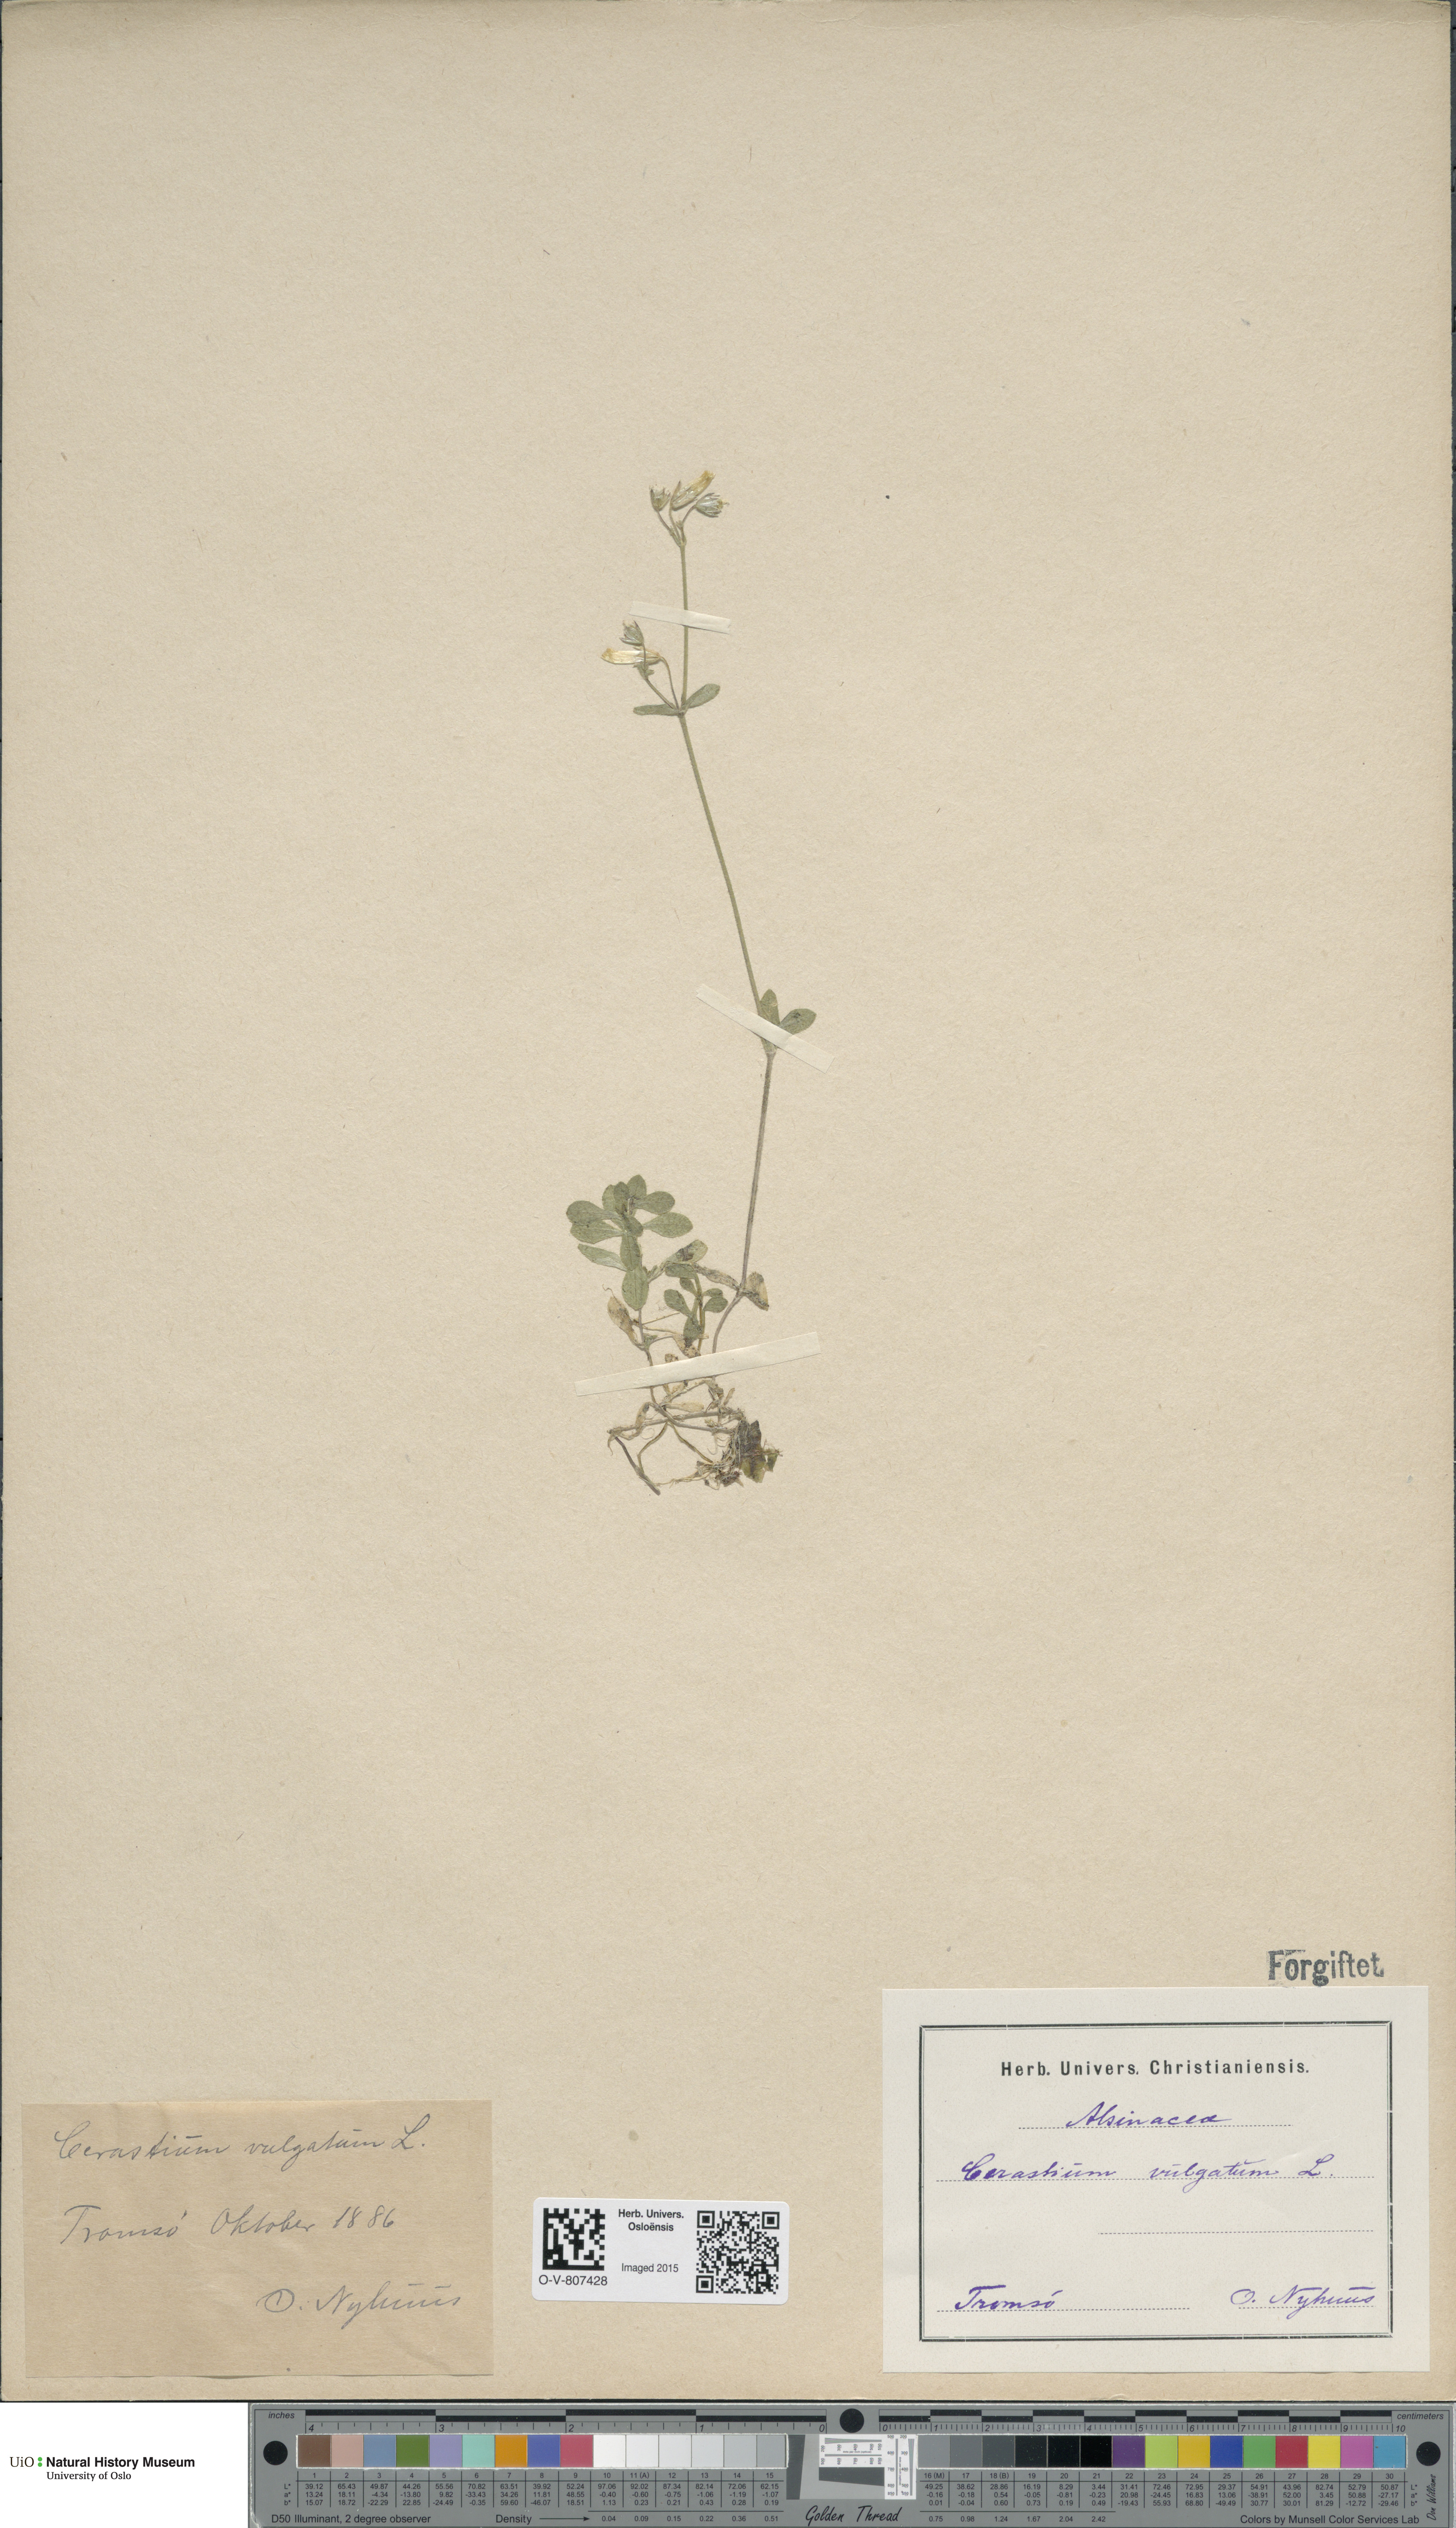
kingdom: Plantae
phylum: Tracheophyta
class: Magnoliopsida
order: Caryophyllales
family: Caryophyllaceae
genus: Cerastium
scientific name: Cerastium holosteoides
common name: Big chickweed
